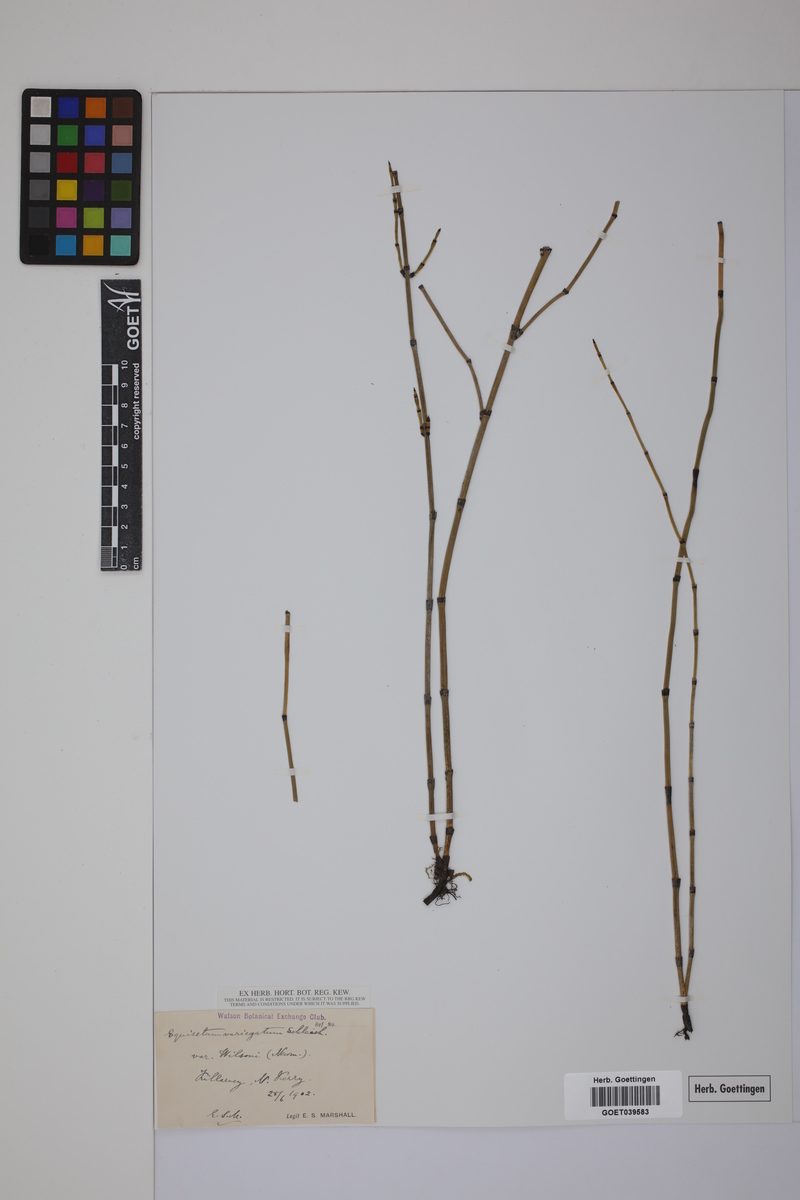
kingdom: Plantae
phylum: Tracheophyta
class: Polypodiopsida
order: Equisetales
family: Equisetaceae
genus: Equisetum
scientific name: Equisetum variegatum
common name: Variegated horsetail
